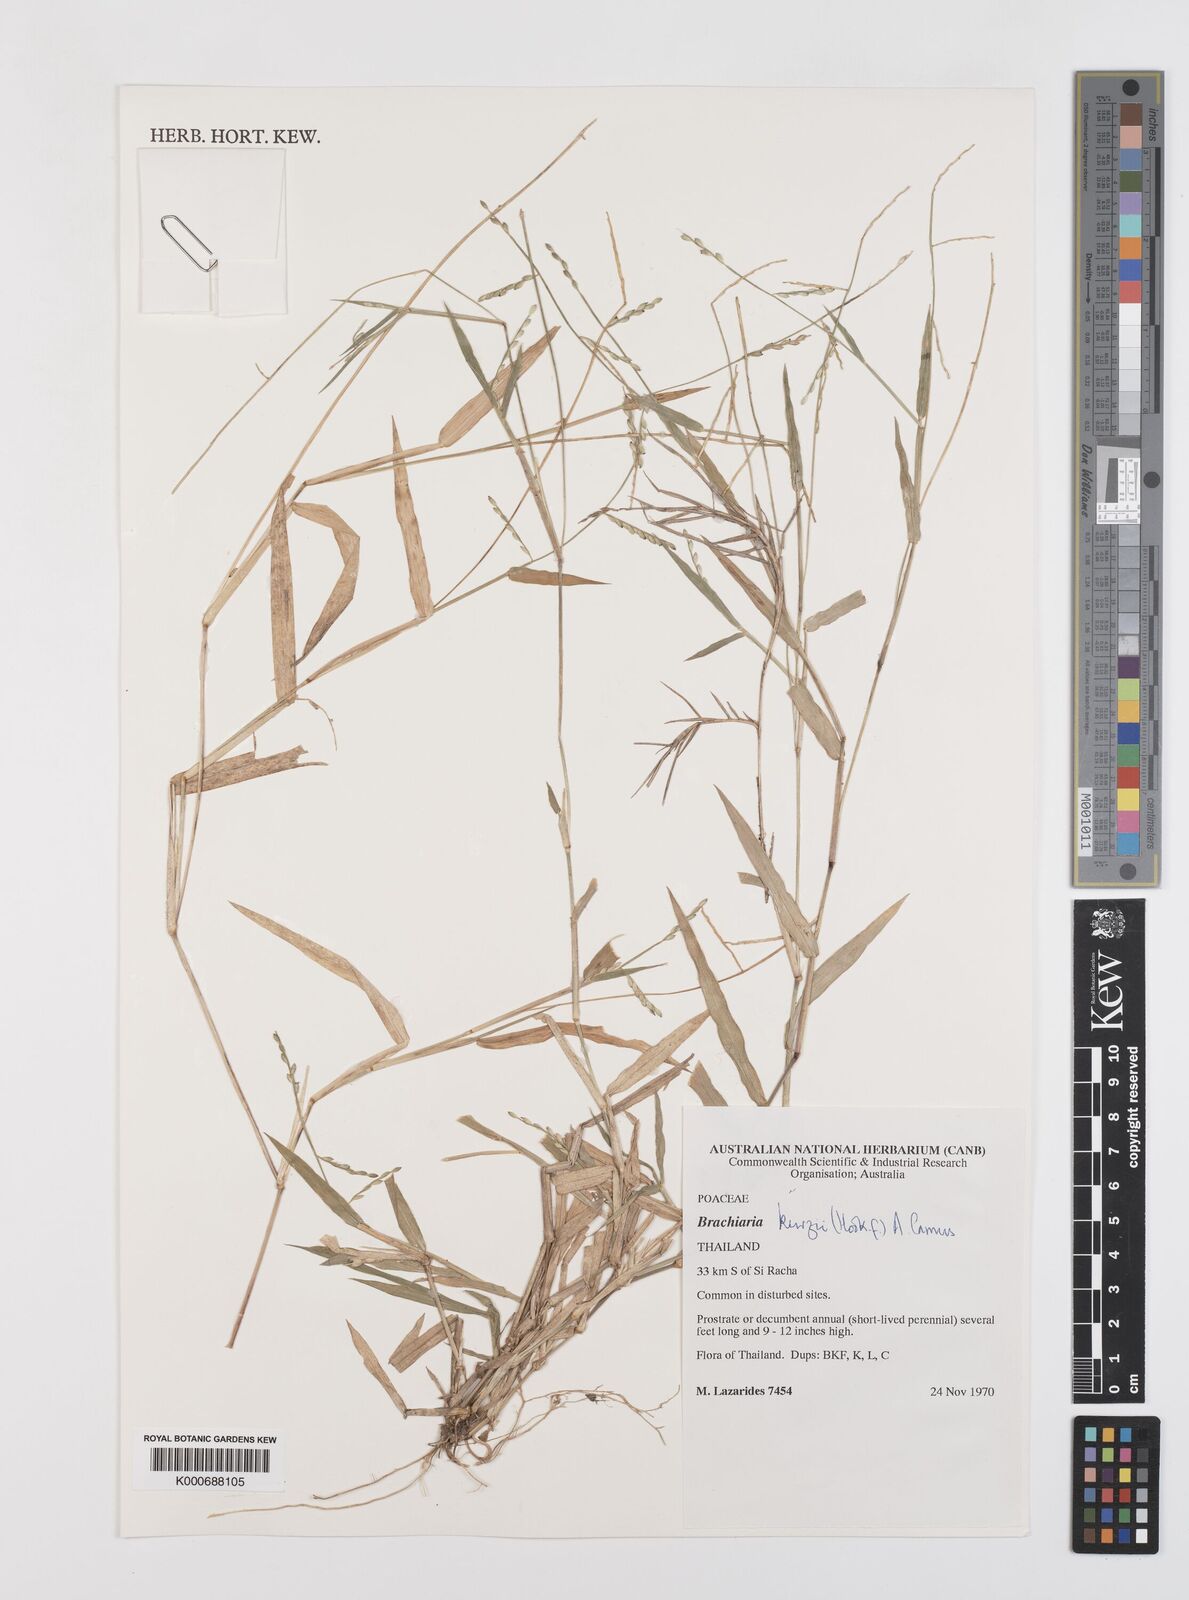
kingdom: Plantae
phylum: Tracheophyta
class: Liliopsida
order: Poales
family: Poaceae
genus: Urochloa
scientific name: Urochloa kurzii
